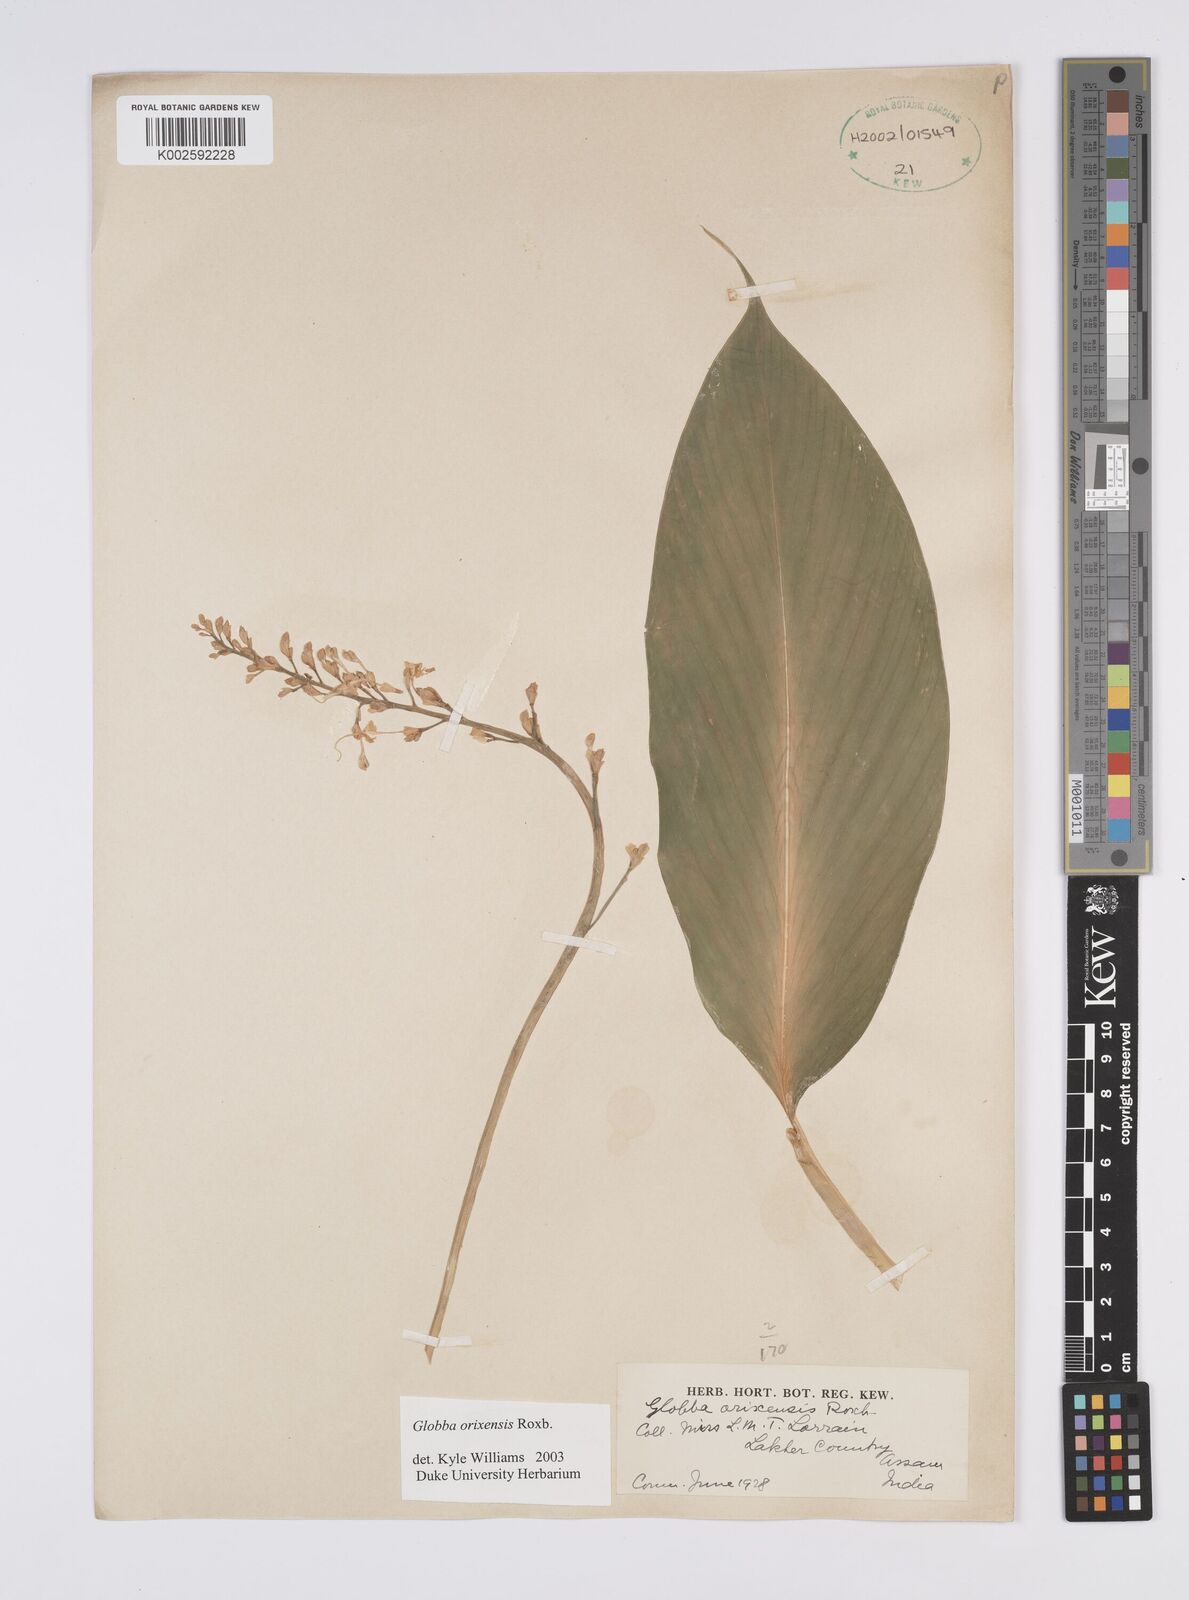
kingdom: Plantae
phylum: Tracheophyta
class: Liliopsida
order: Zingiberales
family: Zingiberaceae
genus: Globba
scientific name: Globba orixensis
